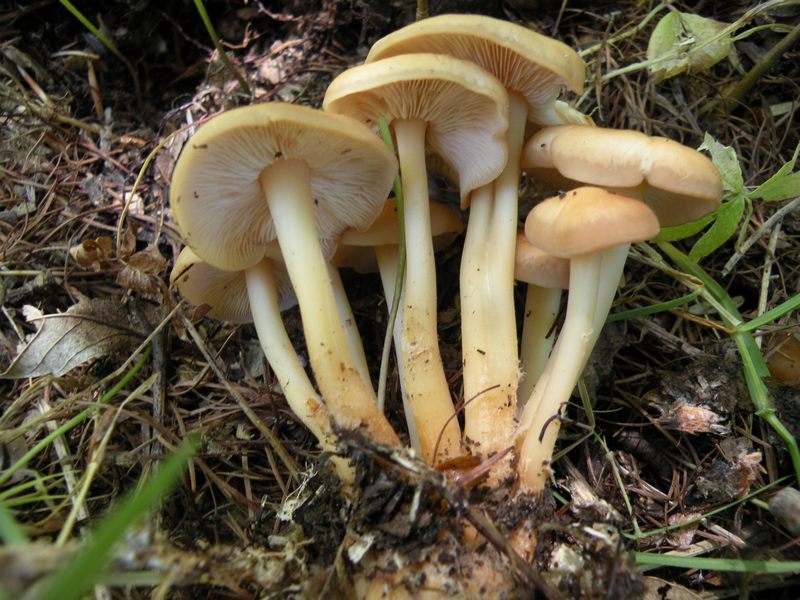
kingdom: Fungi
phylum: Basidiomycota
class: Agaricomycetes
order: Agaricales
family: Omphalotaceae
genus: Gymnopus
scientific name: Gymnopus aquosus
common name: bleg fladhat
